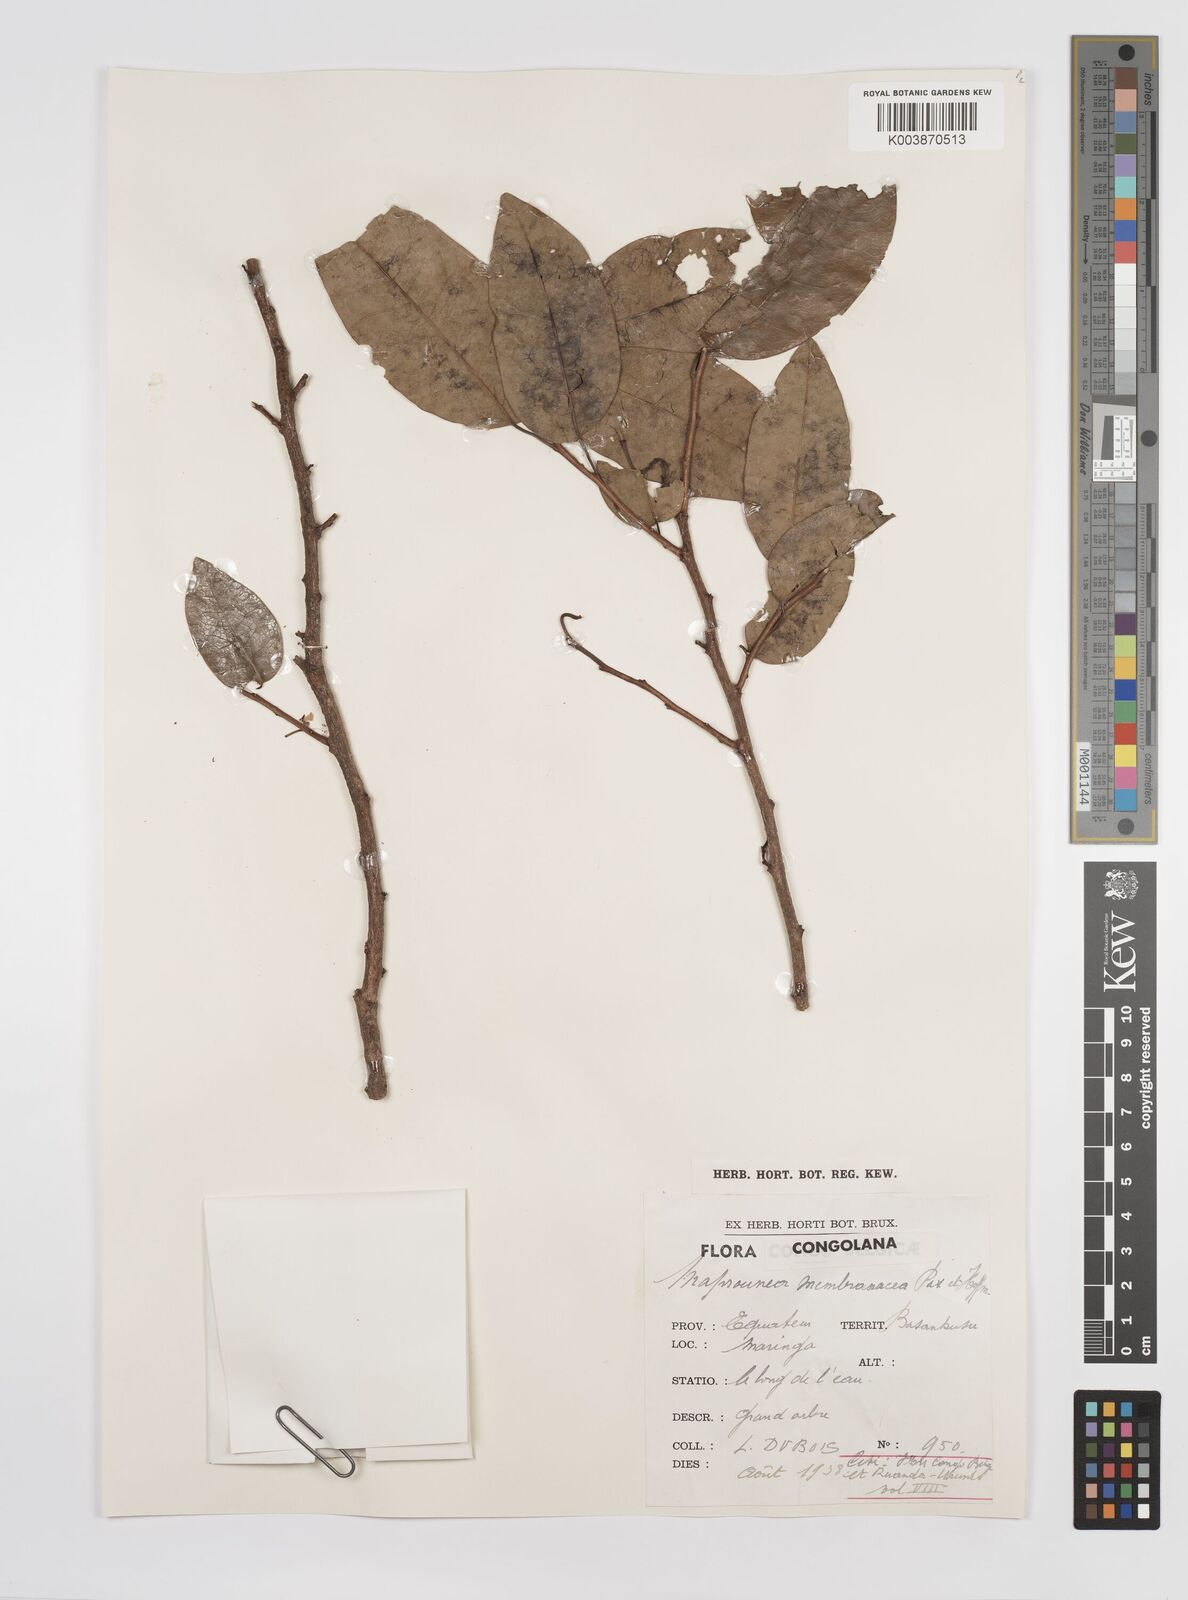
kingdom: Plantae
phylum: Tracheophyta
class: Magnoliopsida
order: Malpighiales
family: Euphorbiaceae
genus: Maprounea
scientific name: Maprounea membranacea
